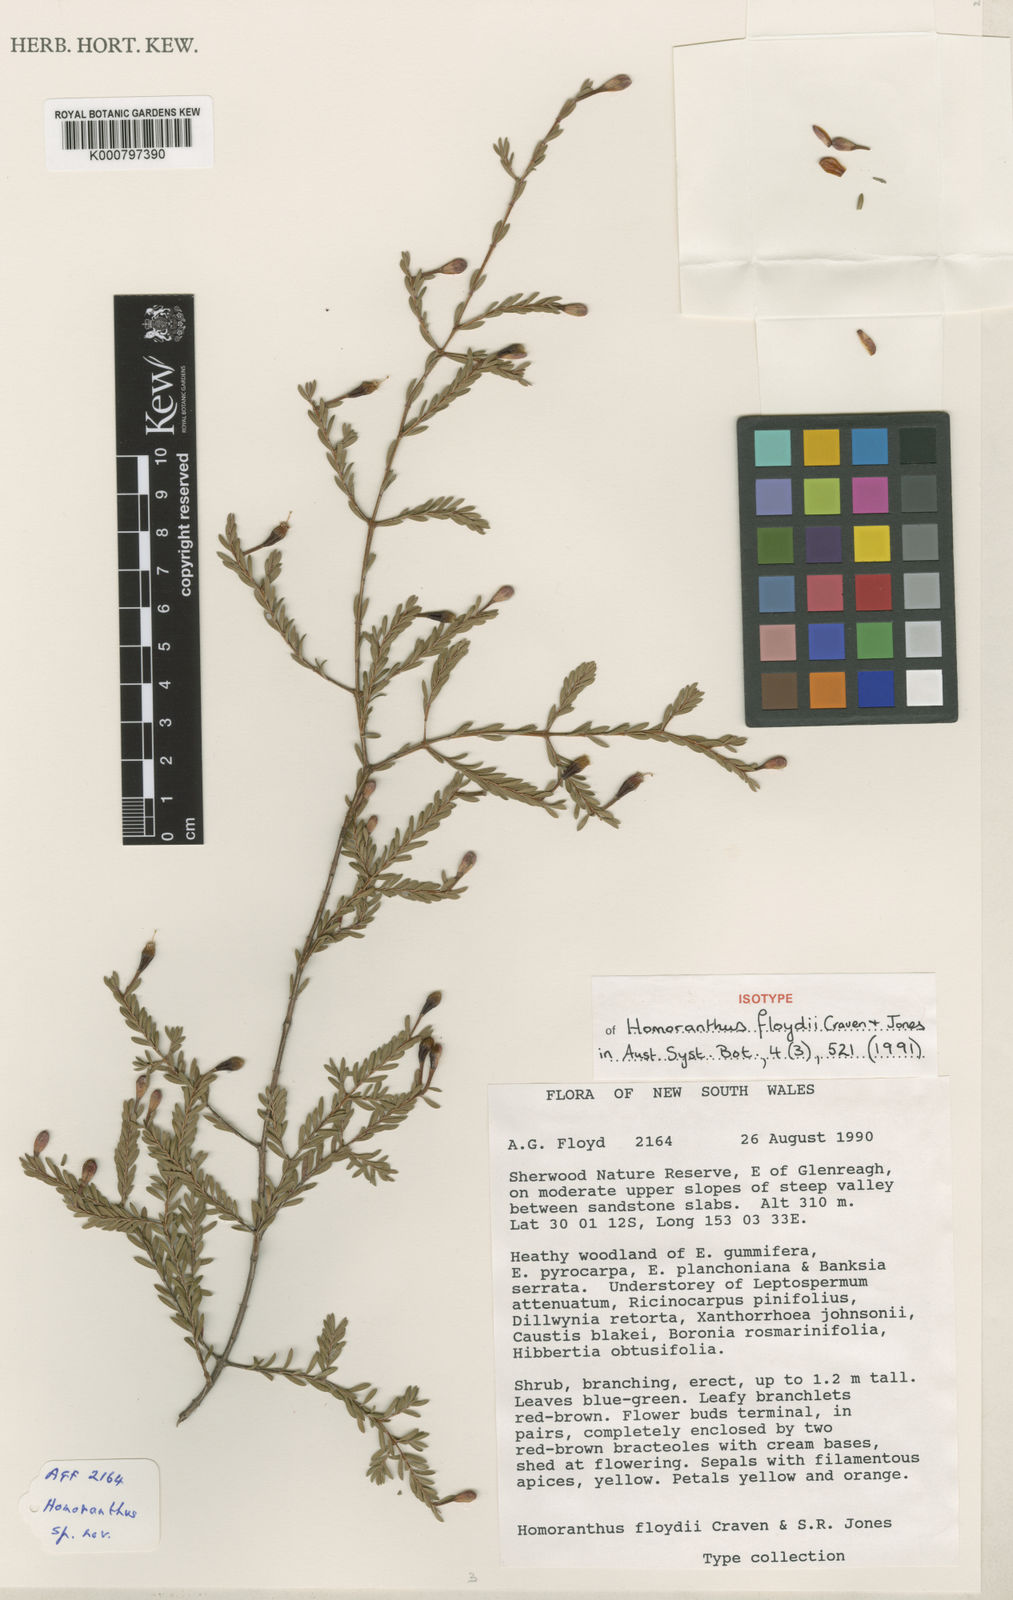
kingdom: Plantae
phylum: Tracheophyta
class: Magnoliopsida
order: Myrtales
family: Myrtaceae
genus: Homoranthus
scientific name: Homoranthus floydii
